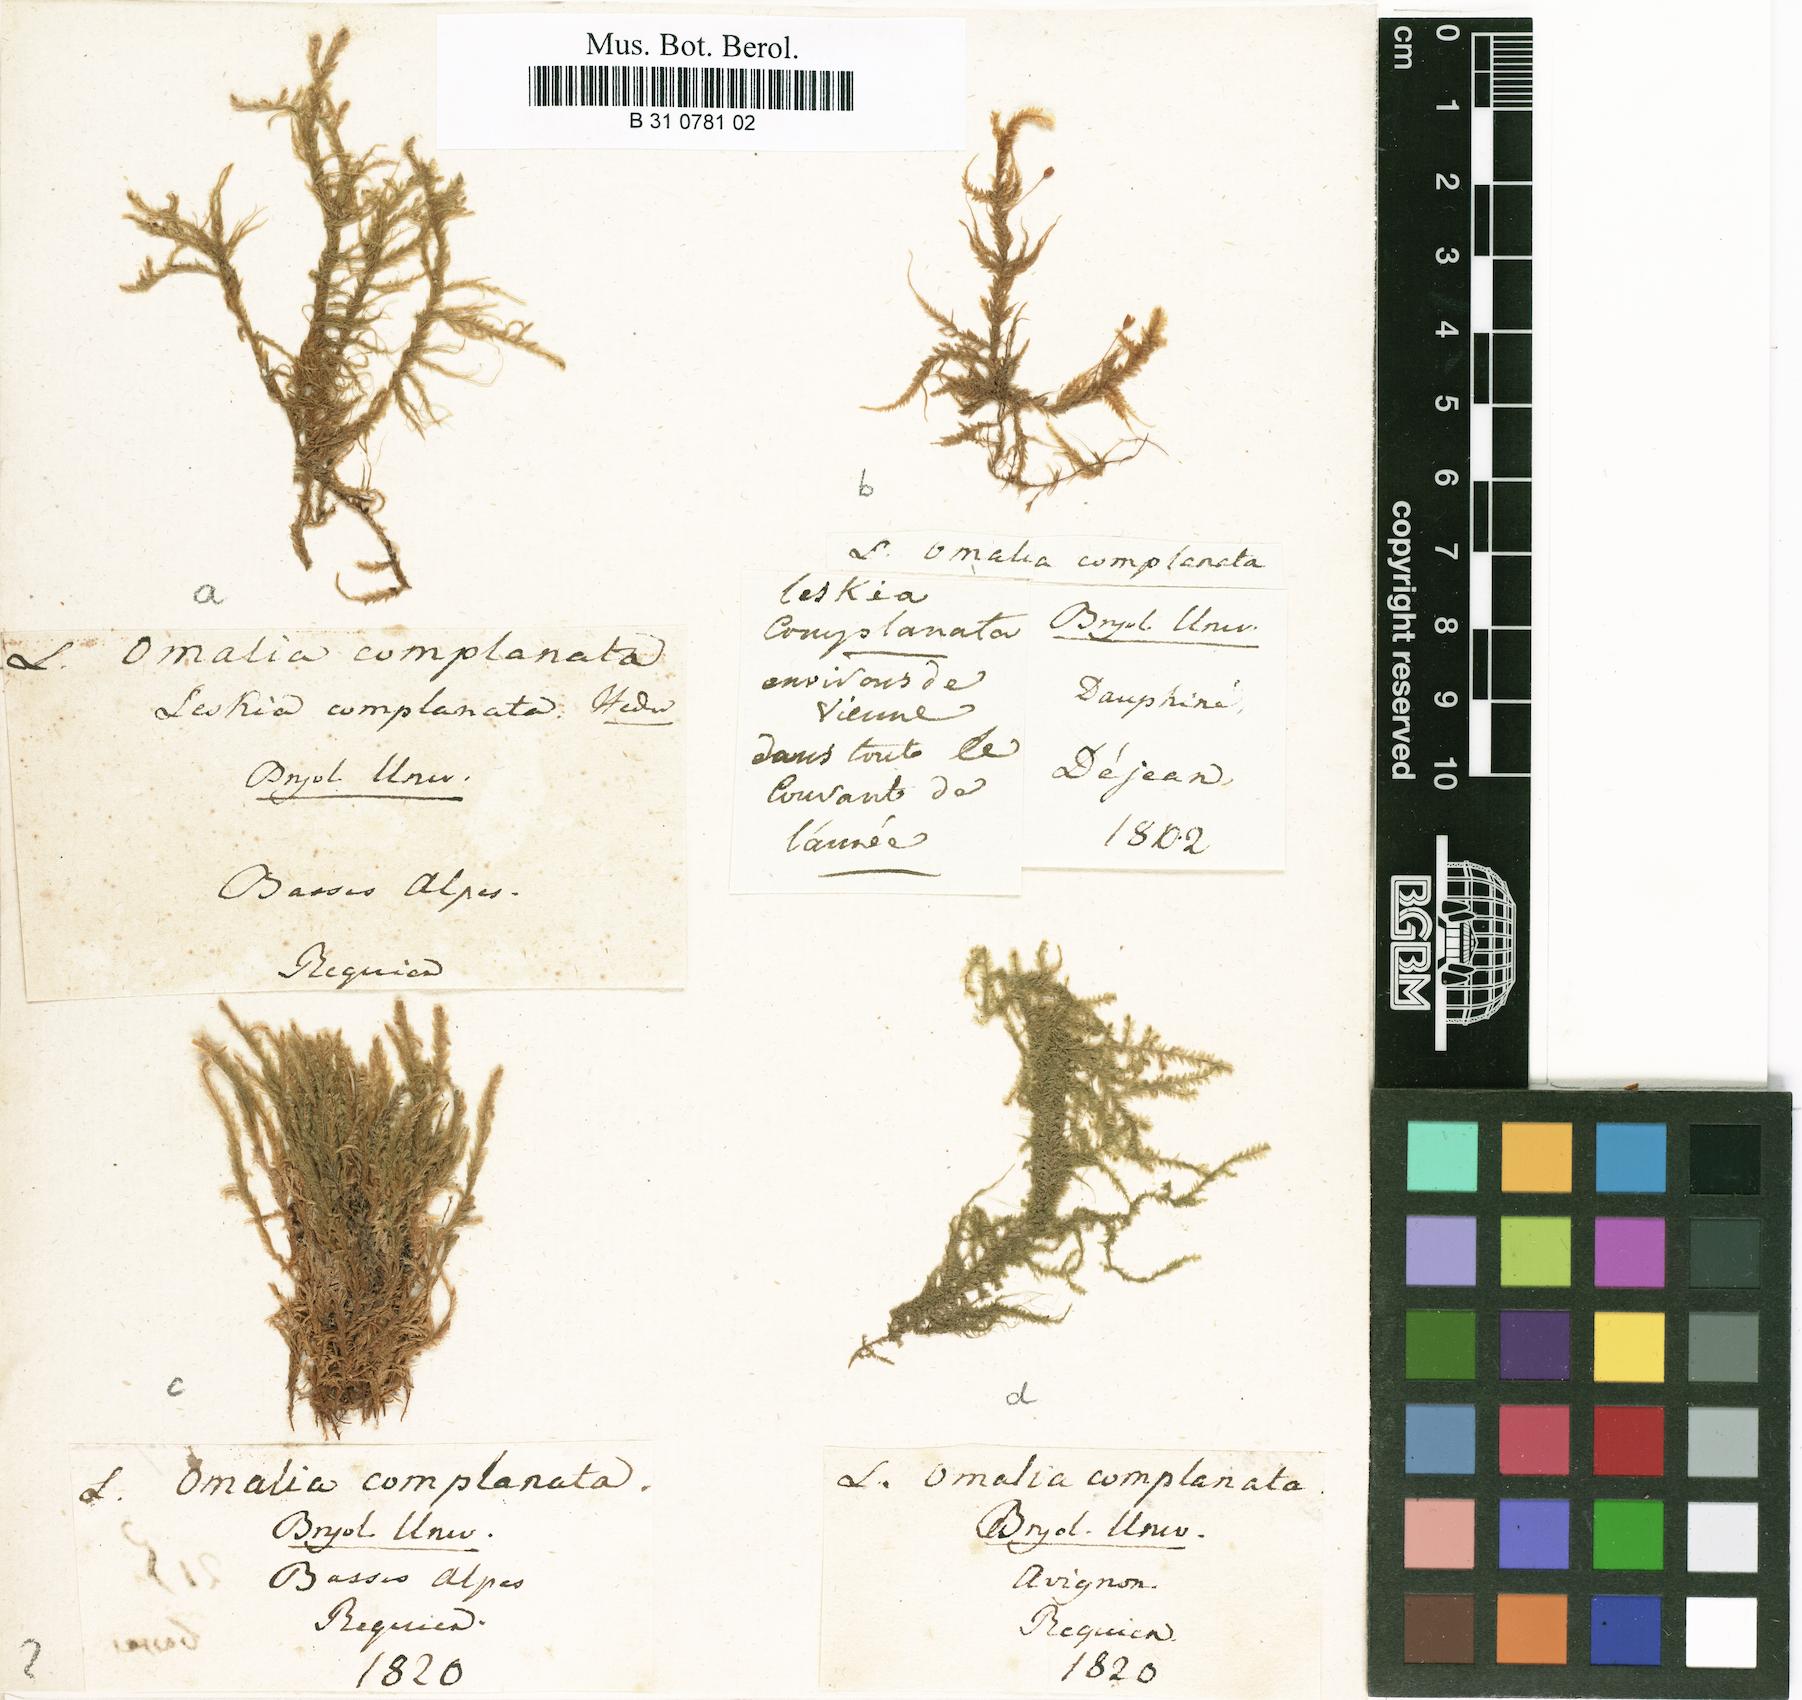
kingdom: Plantae
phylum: Bryophyta
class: Bryopsida
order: Hypnales
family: Neckeraceae
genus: Omalia
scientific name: Omalia
